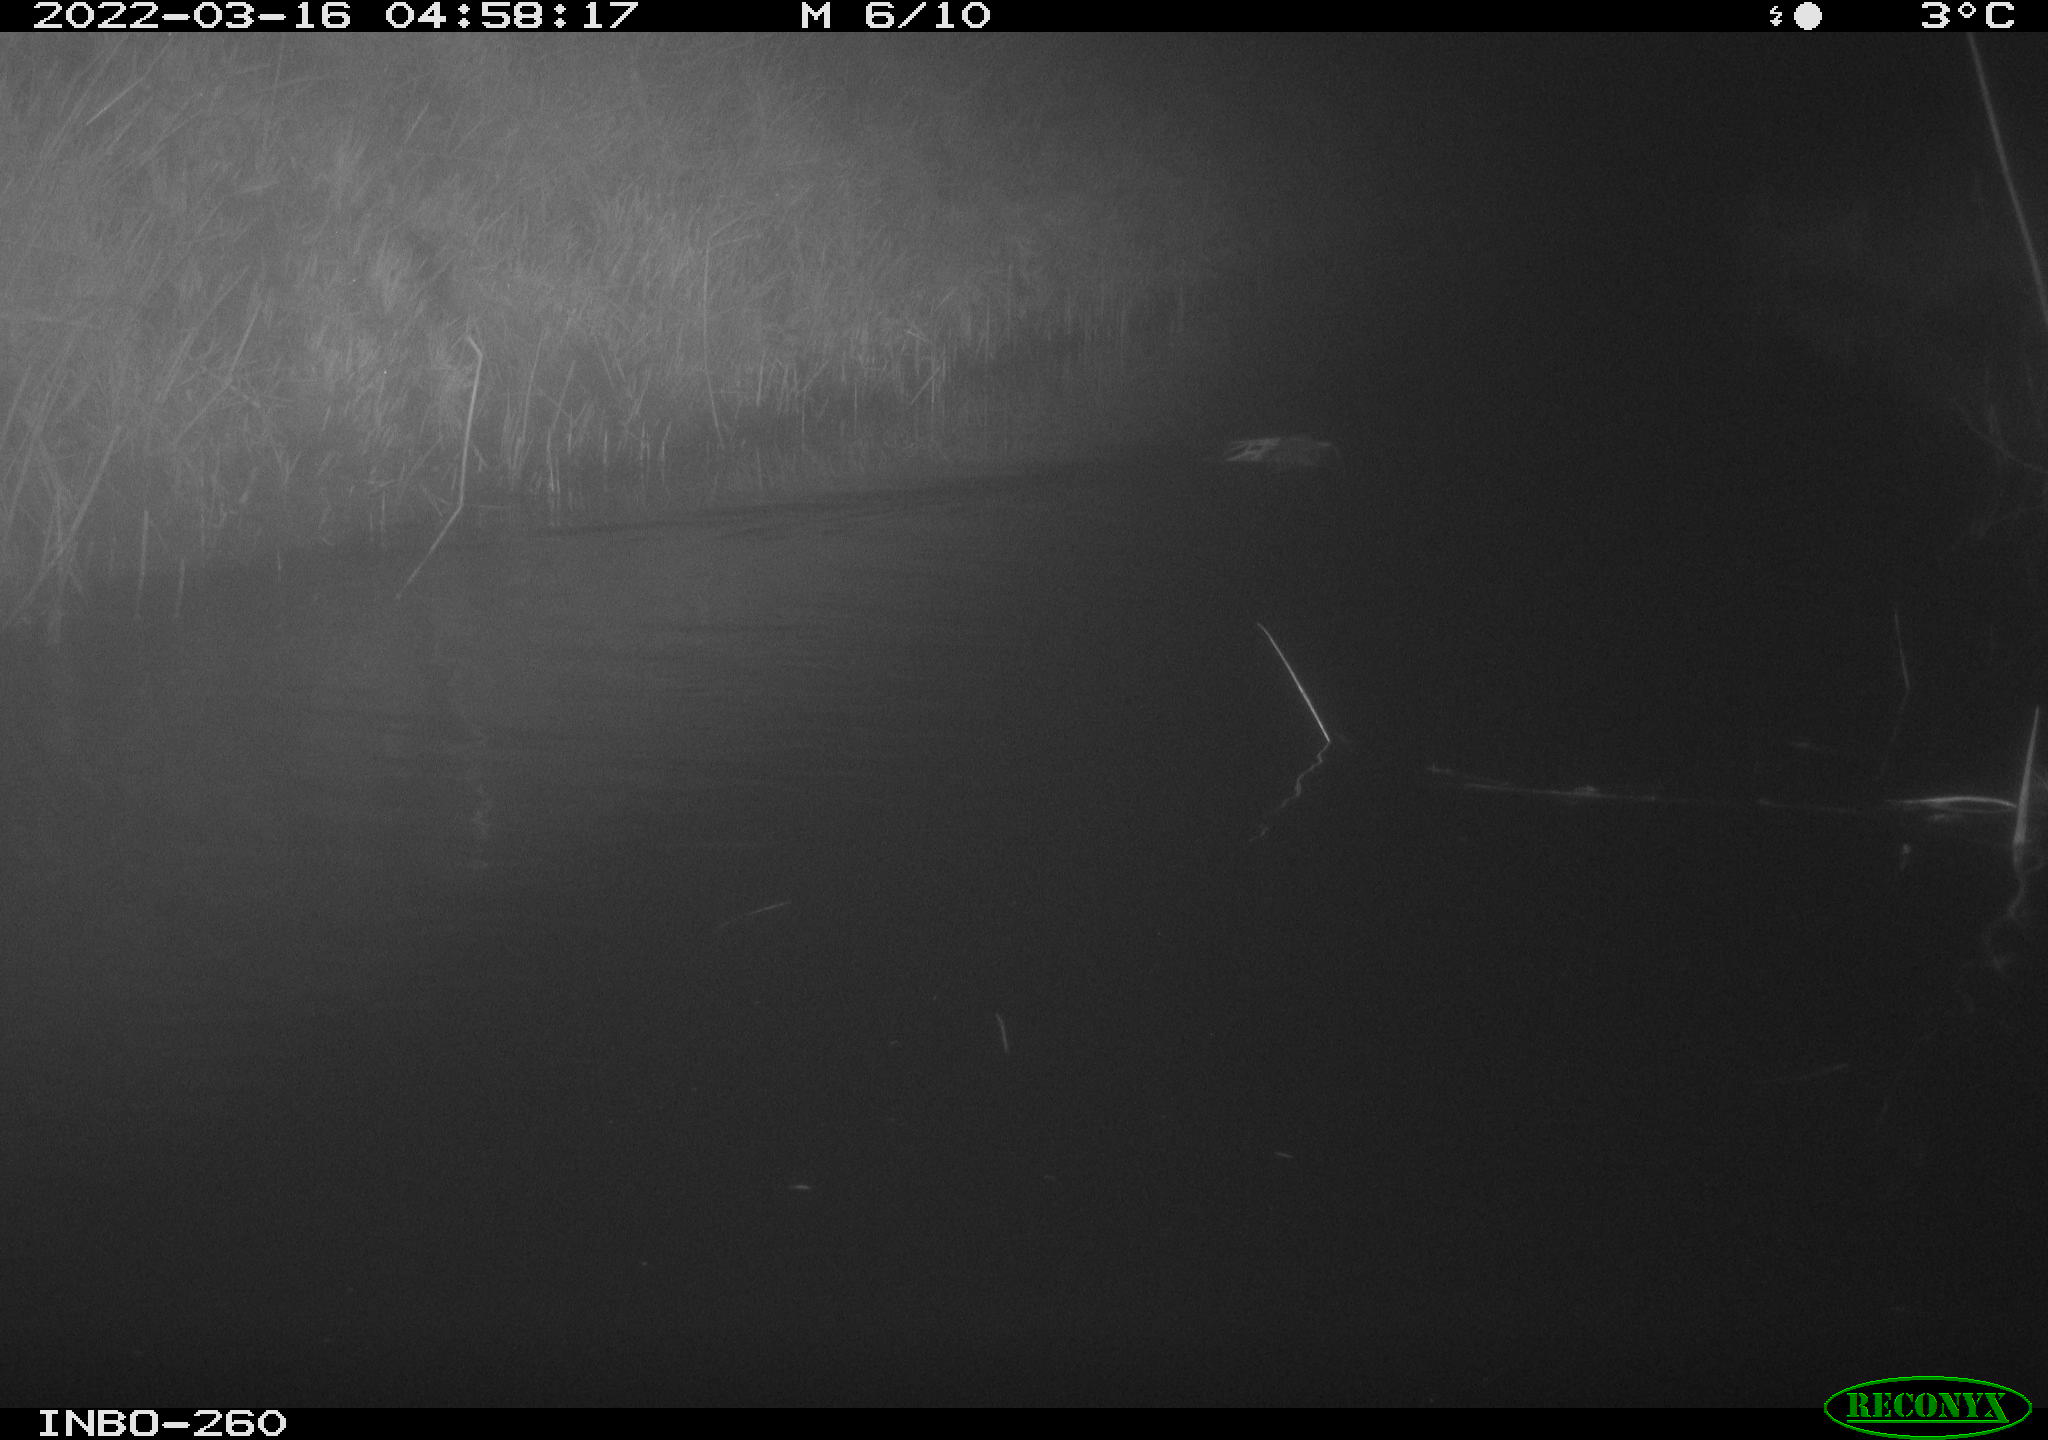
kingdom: Animalia
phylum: Chordata
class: Mammalia
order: Rodentia
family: Cricetidae
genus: Ondatra
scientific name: Ondatra zibethicus
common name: Muskrat
